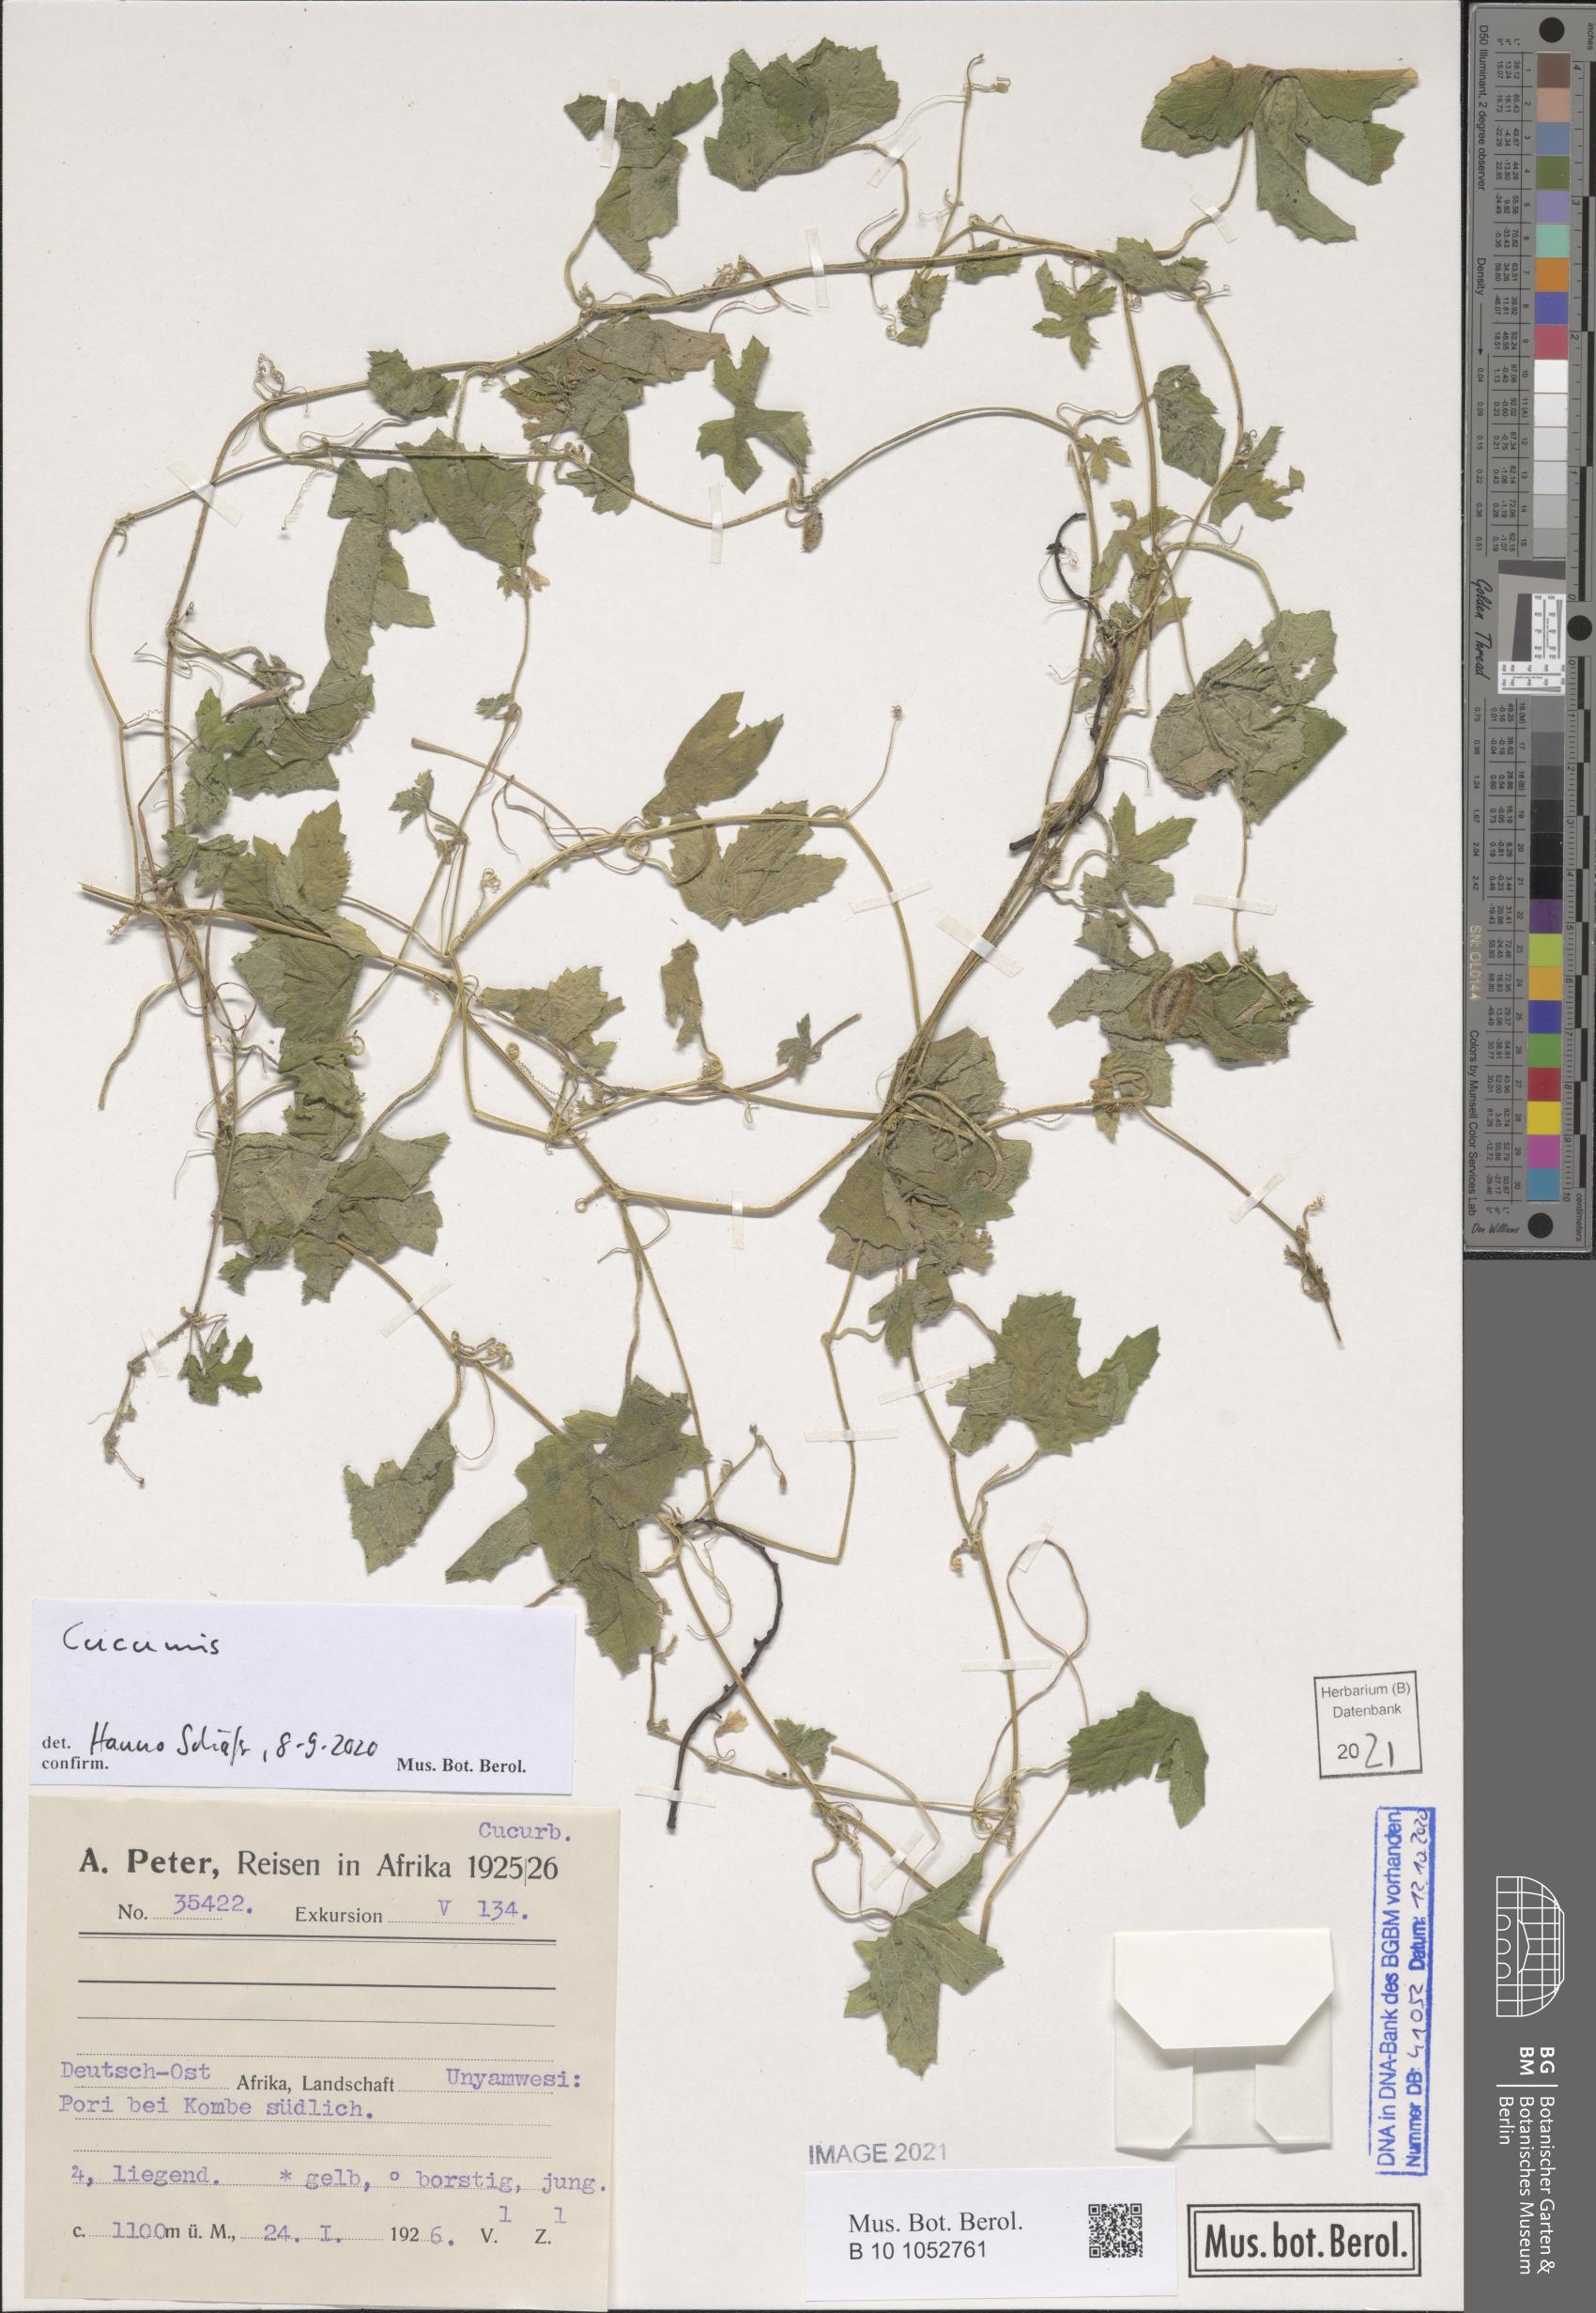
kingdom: Plantae
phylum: Tracheophyta
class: Magnoliopsida
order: Cucurbitales
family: Cucurbitaceae
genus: Cucumis
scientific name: Cucumis
